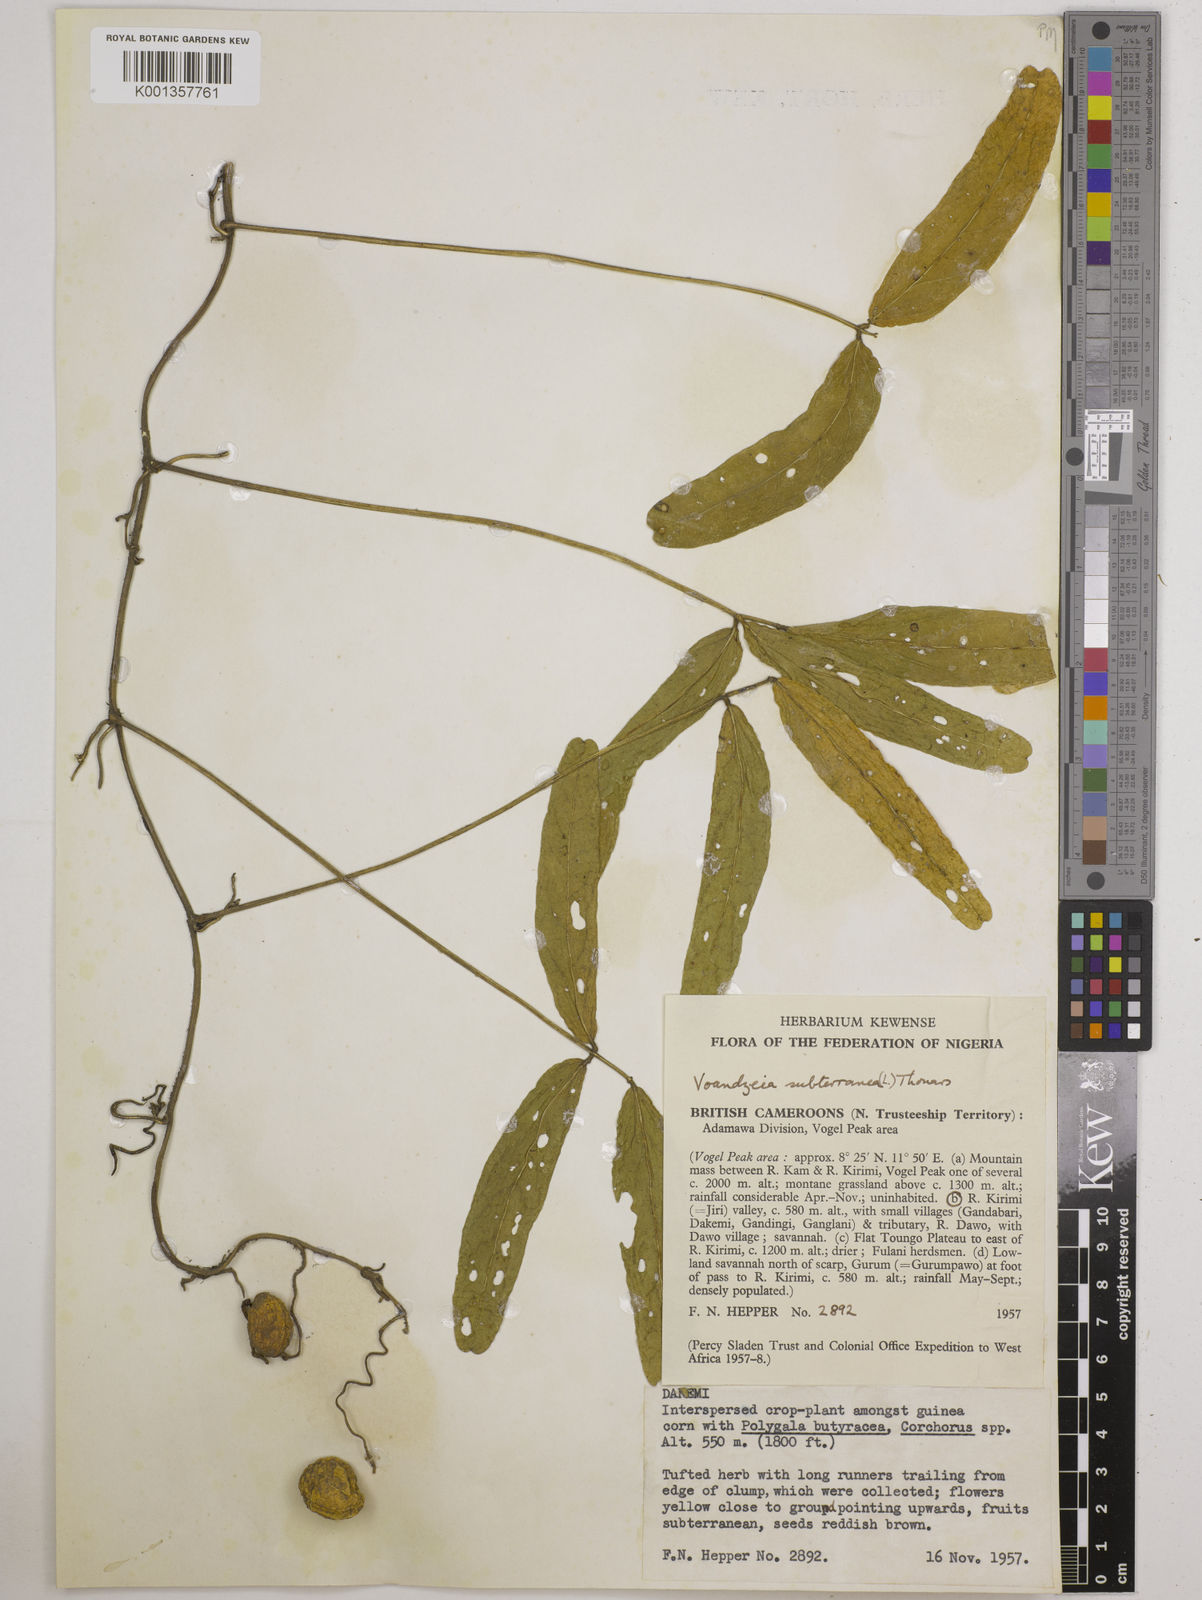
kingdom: Plantae
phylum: Tracheophyta
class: Magnoliopsida
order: Fabales
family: Fabaceae
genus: Vigna
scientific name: Vigna subterranea
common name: Bambara groundnut
